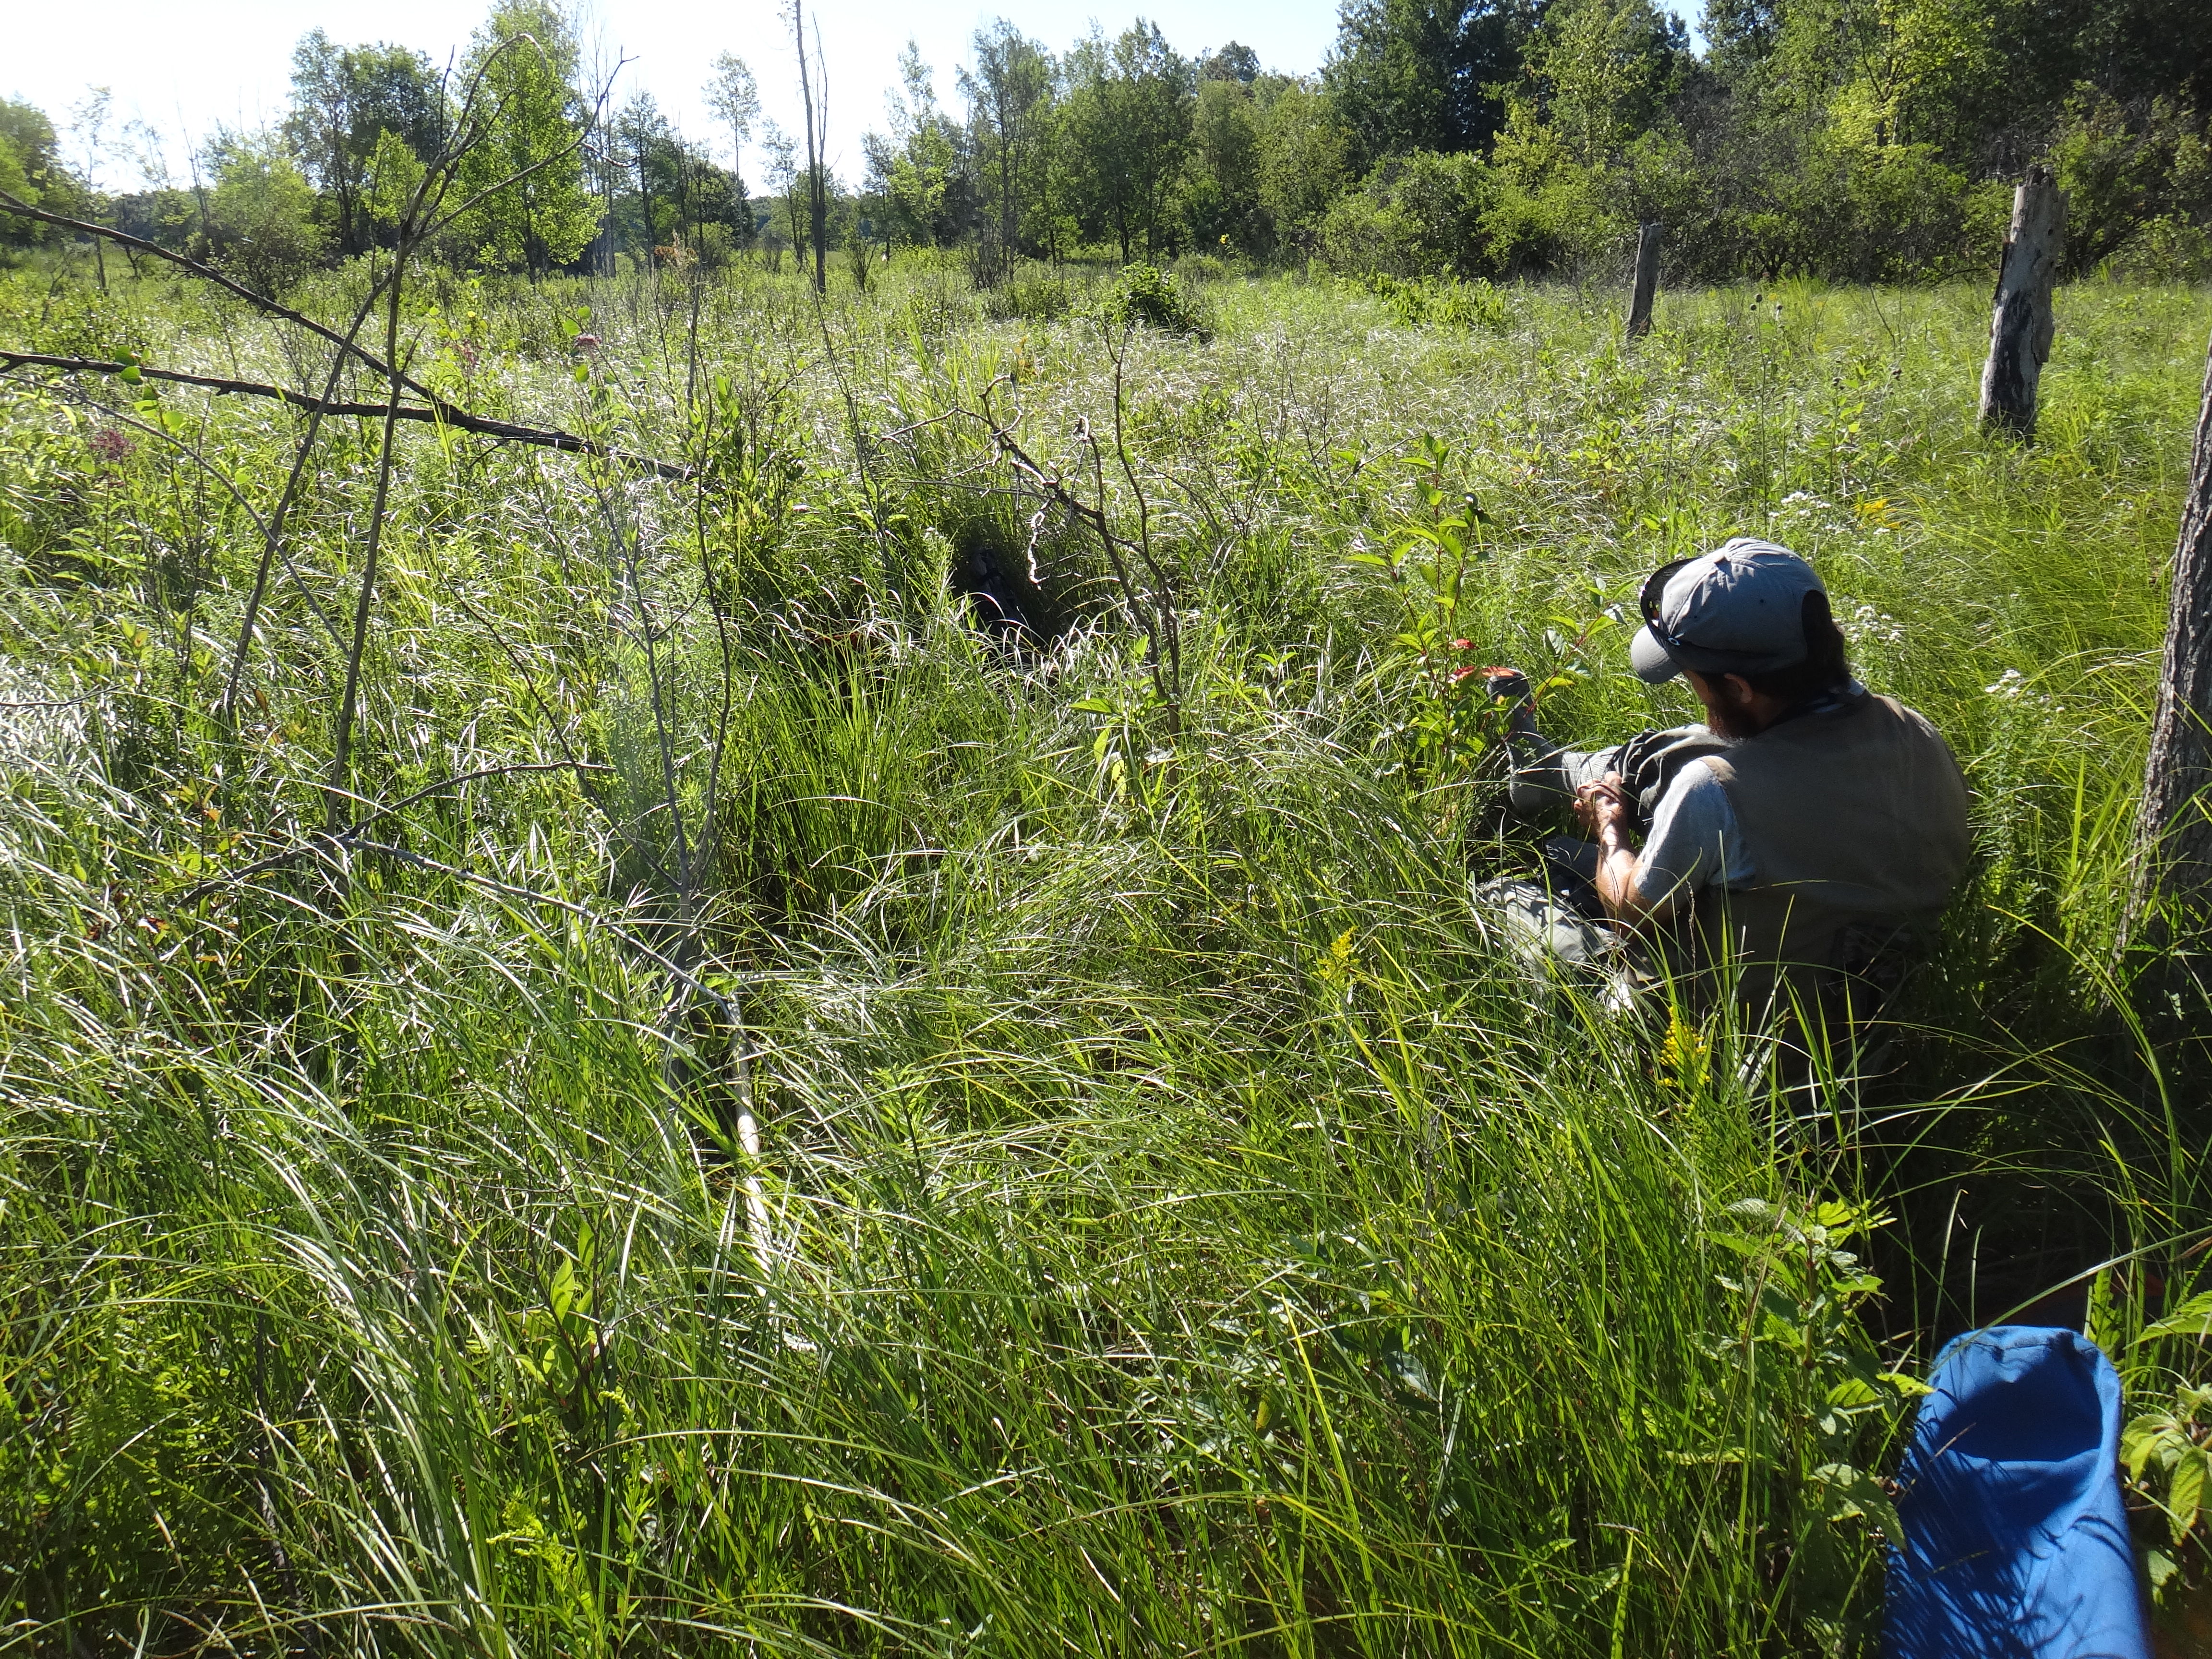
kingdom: Plantae
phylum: Tracheophyta
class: Magnoliopsida
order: Asterales
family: Campanulaceae
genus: Palustricodon
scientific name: Palustricodon aparinoides
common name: Bedstraw bellflower
